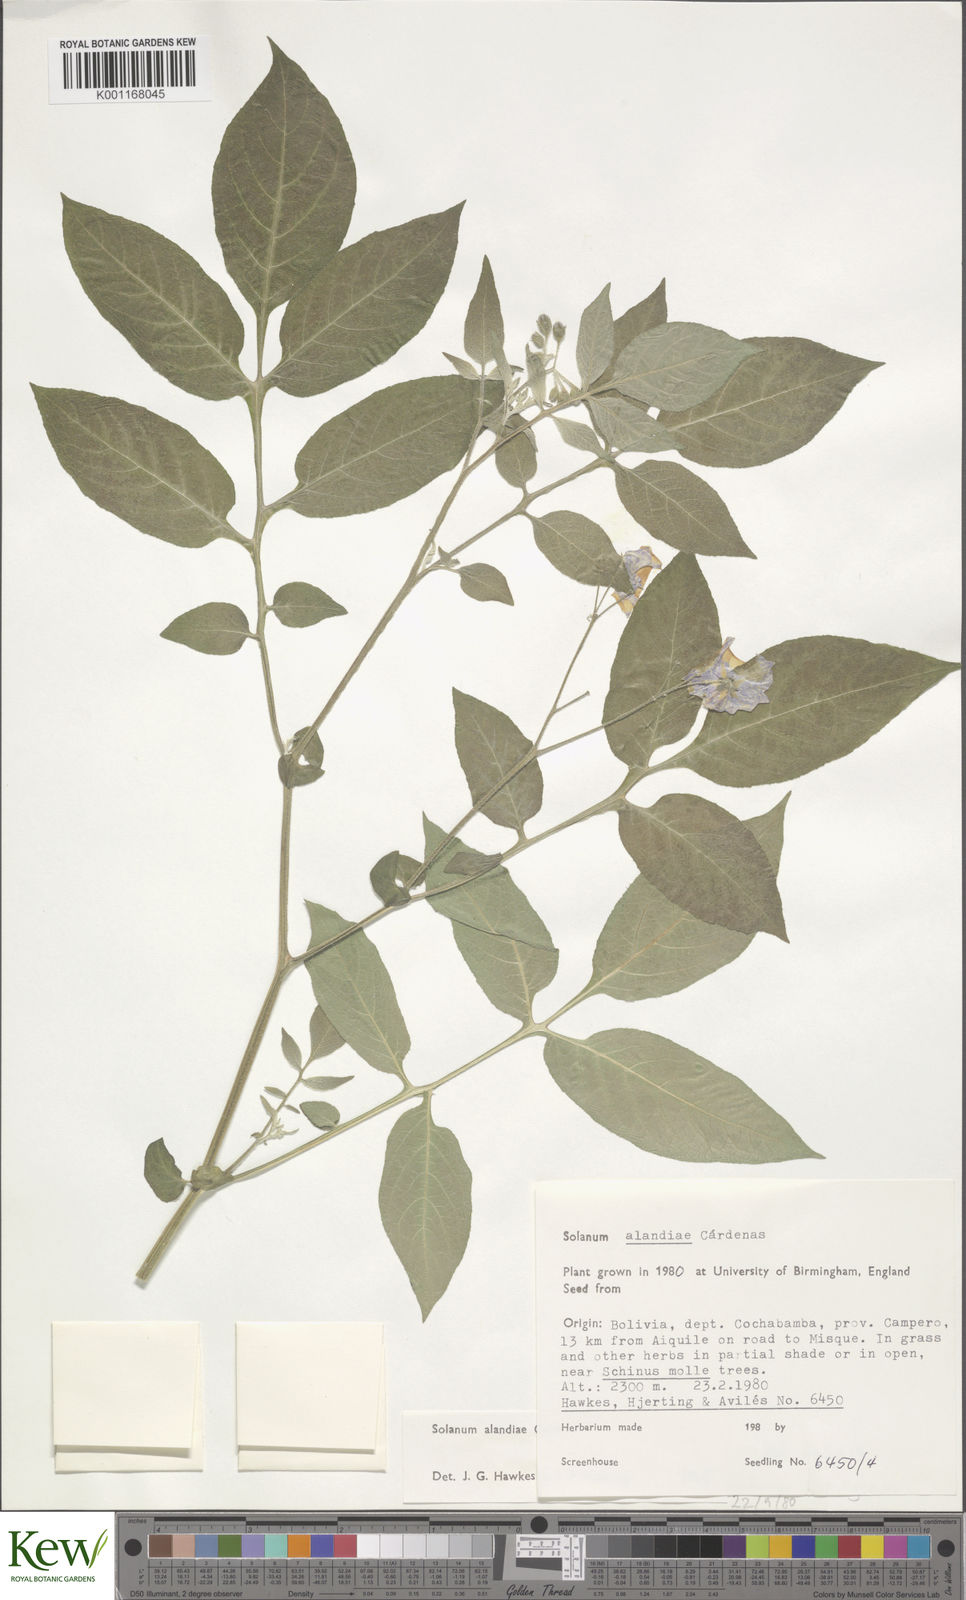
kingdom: Plantae
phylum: Tracheophyta
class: Magnoliopsida
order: Solanales
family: Solanaceae
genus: Solanum
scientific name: Solanum
